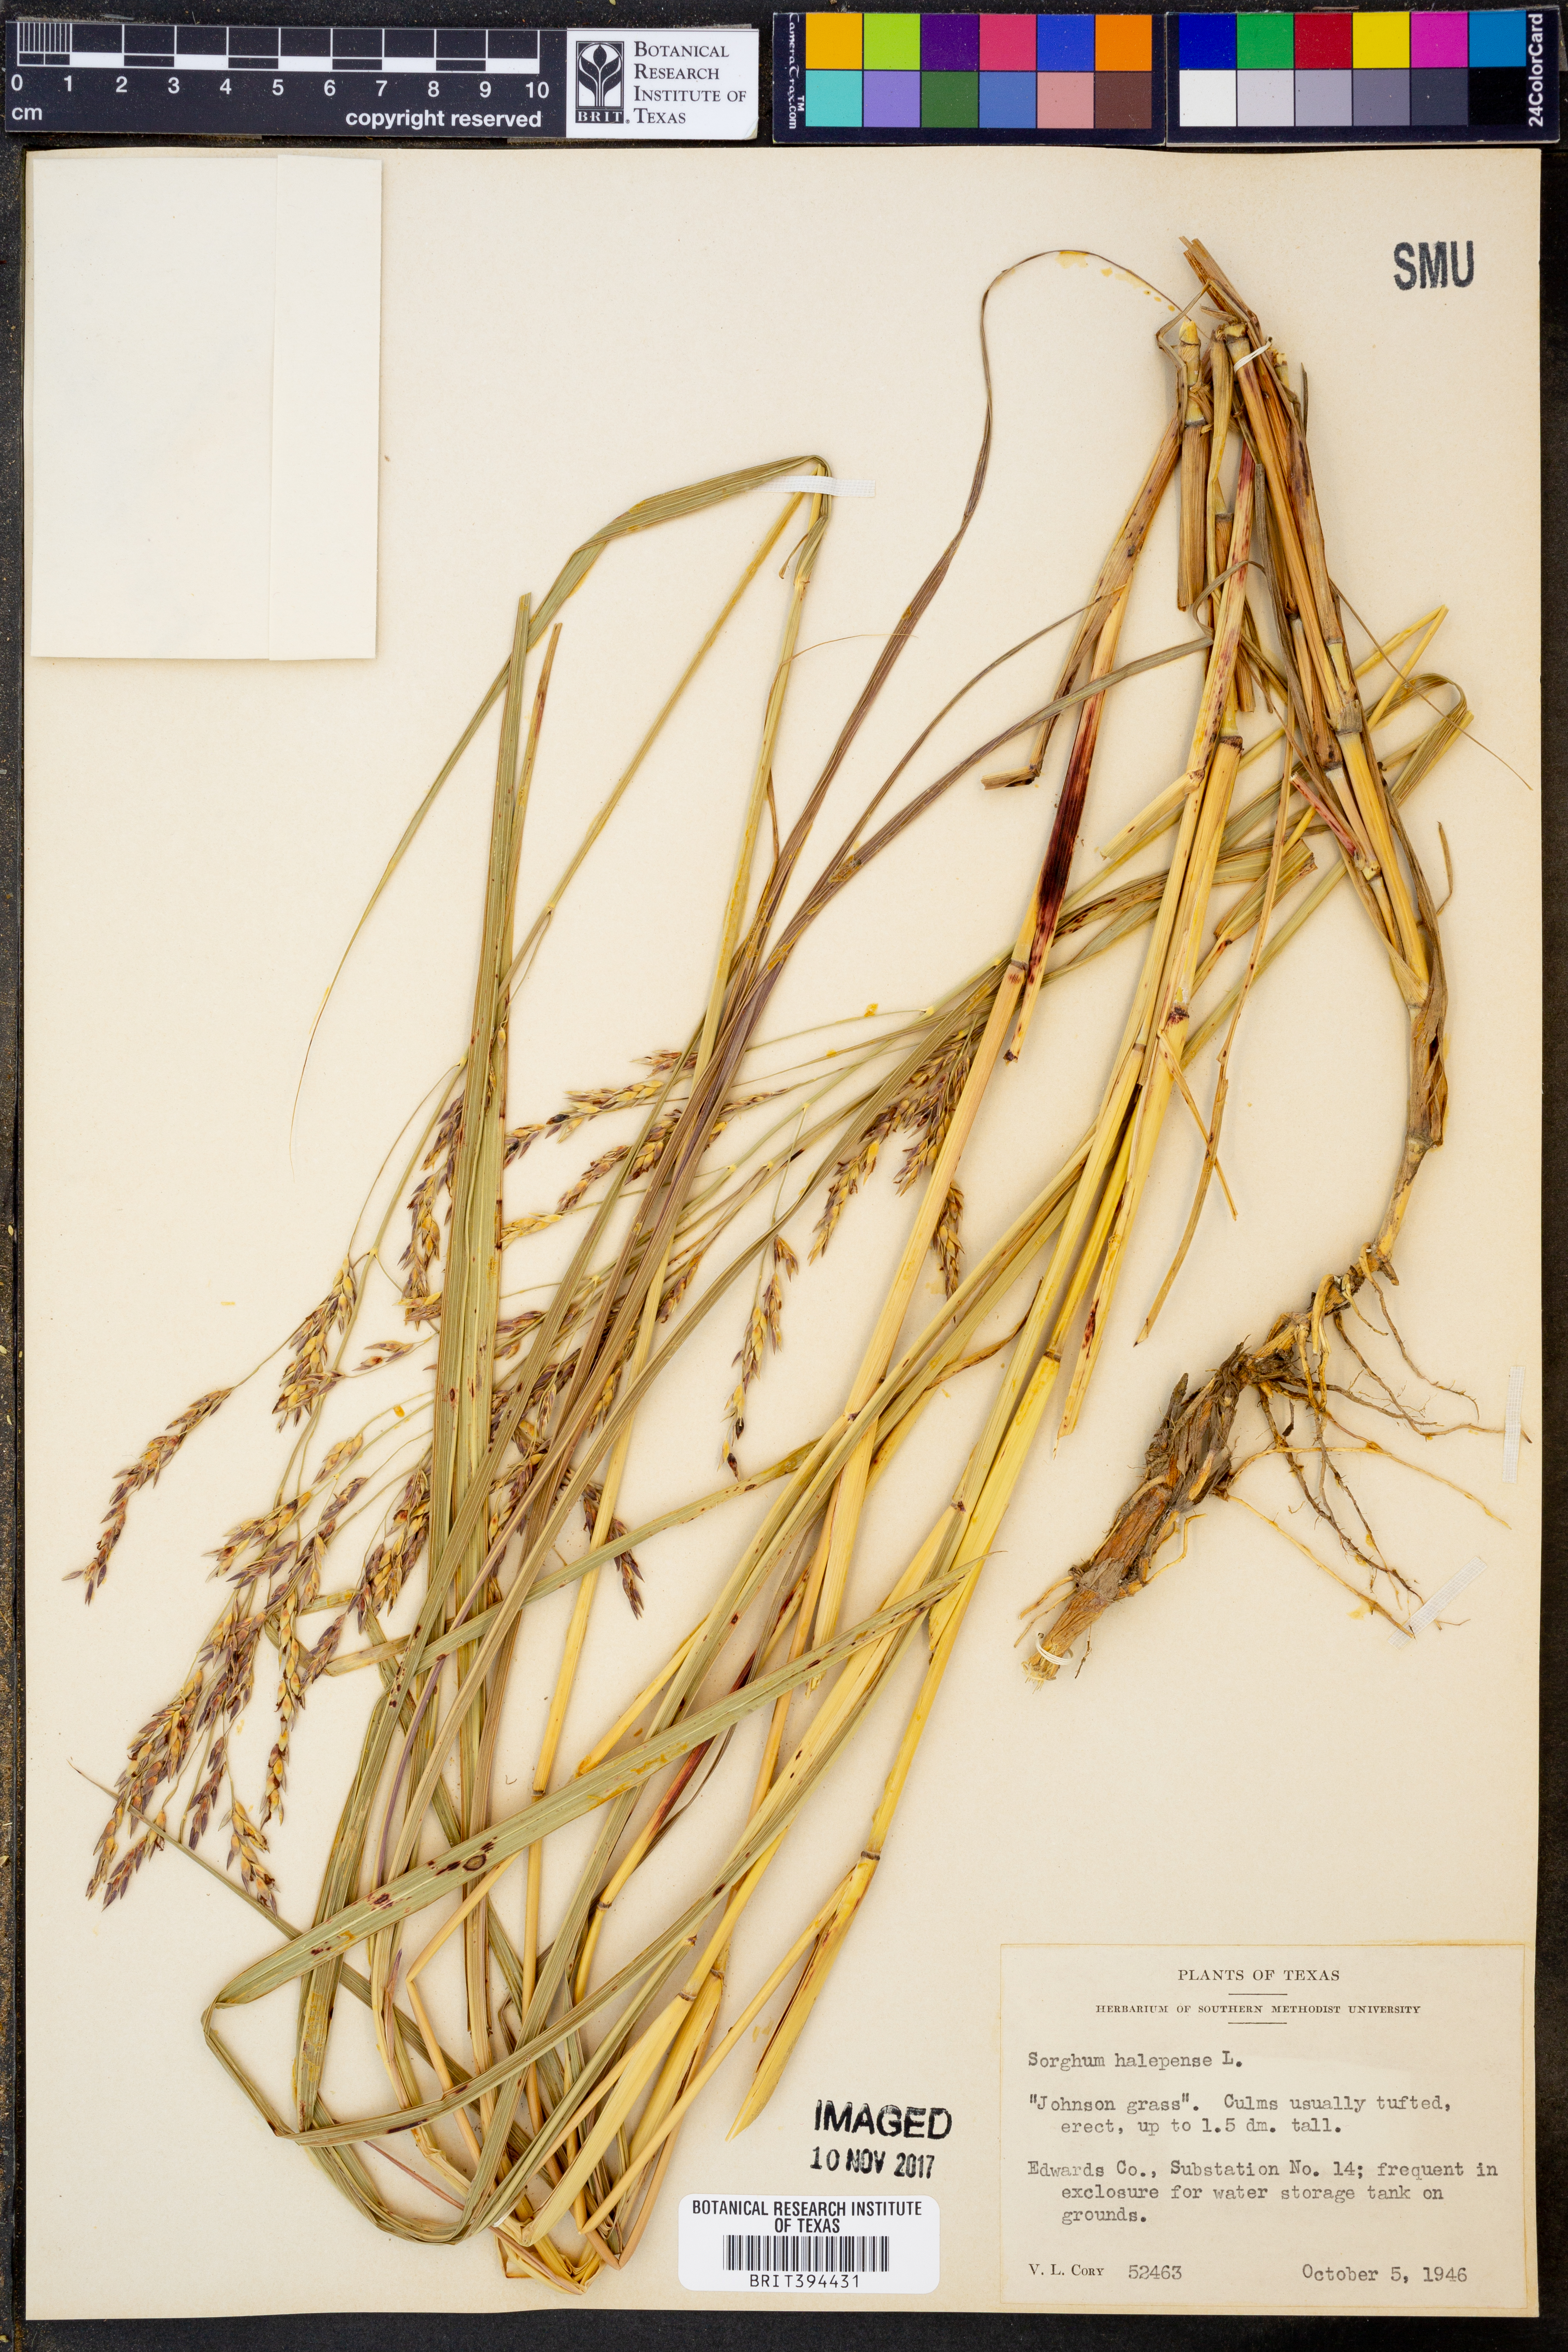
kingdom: Plantae
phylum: Tracheophyta
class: Liliopsida
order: Poales
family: Poaceae
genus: Sorghum
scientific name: Sorghum halepense
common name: Johnson-grass
